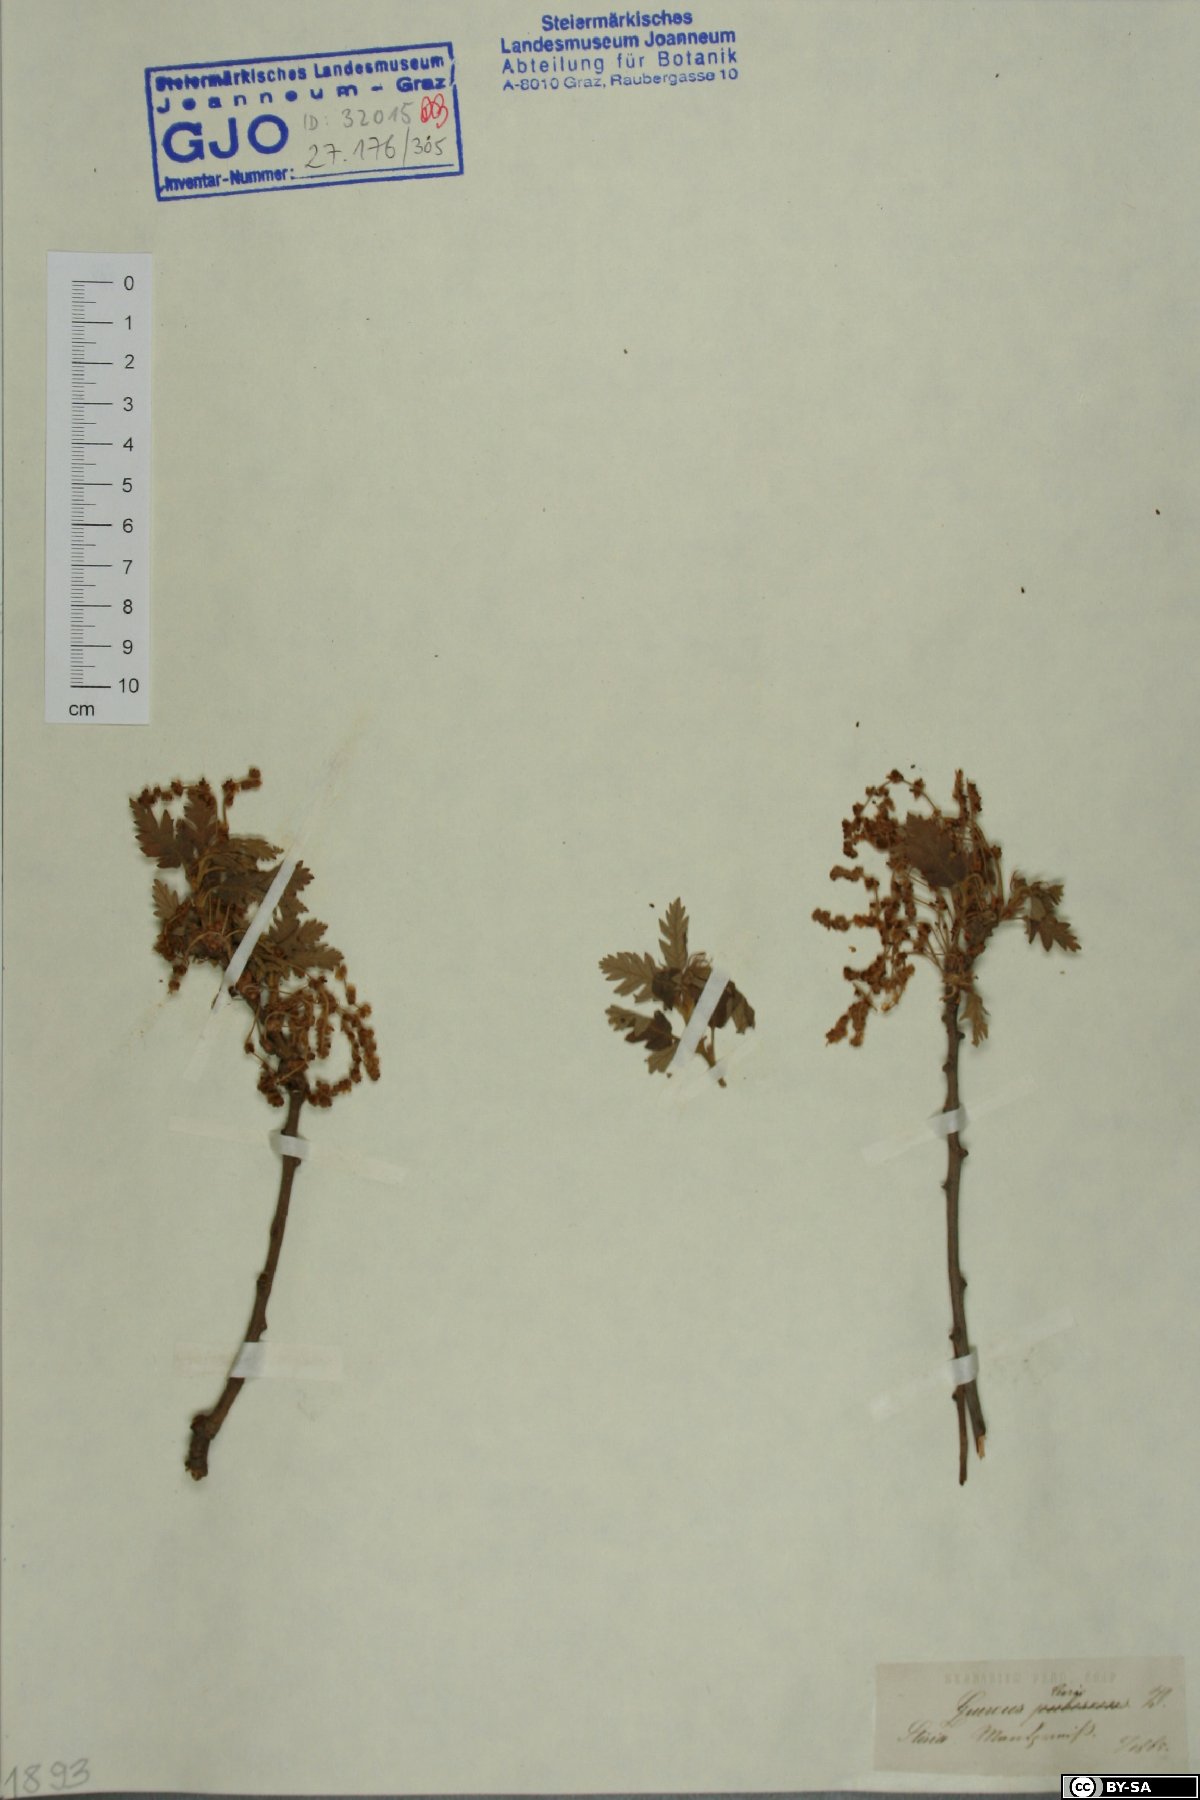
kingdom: Plantae
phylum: Tracheophyta
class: Magnoliopsida
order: Fagales
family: Fagaceae
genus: Quercus
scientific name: Quercus cerris
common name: Turkey oak
